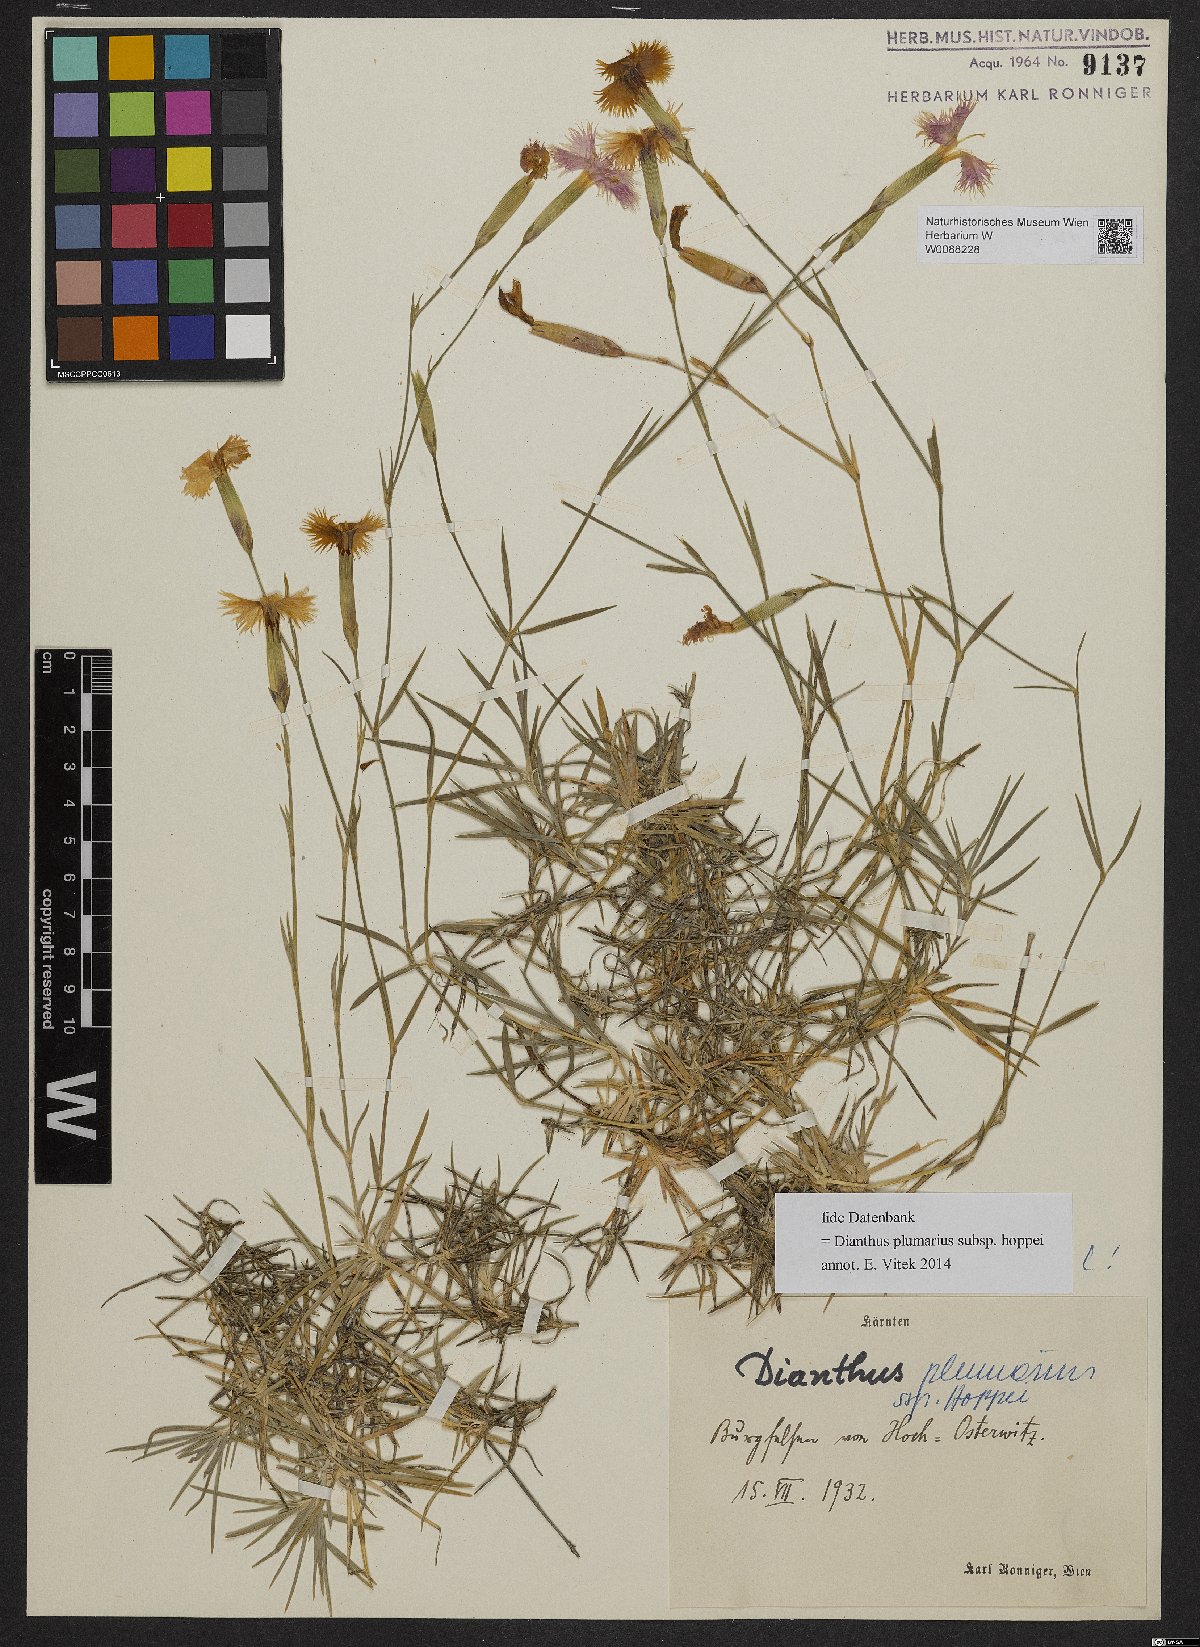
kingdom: Plantae
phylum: Tracheophyta
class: Magnoliopsida
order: Caryophyllales
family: Caryophyllaceae
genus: Dianthus
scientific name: Dianthus plumarius
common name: Pink
